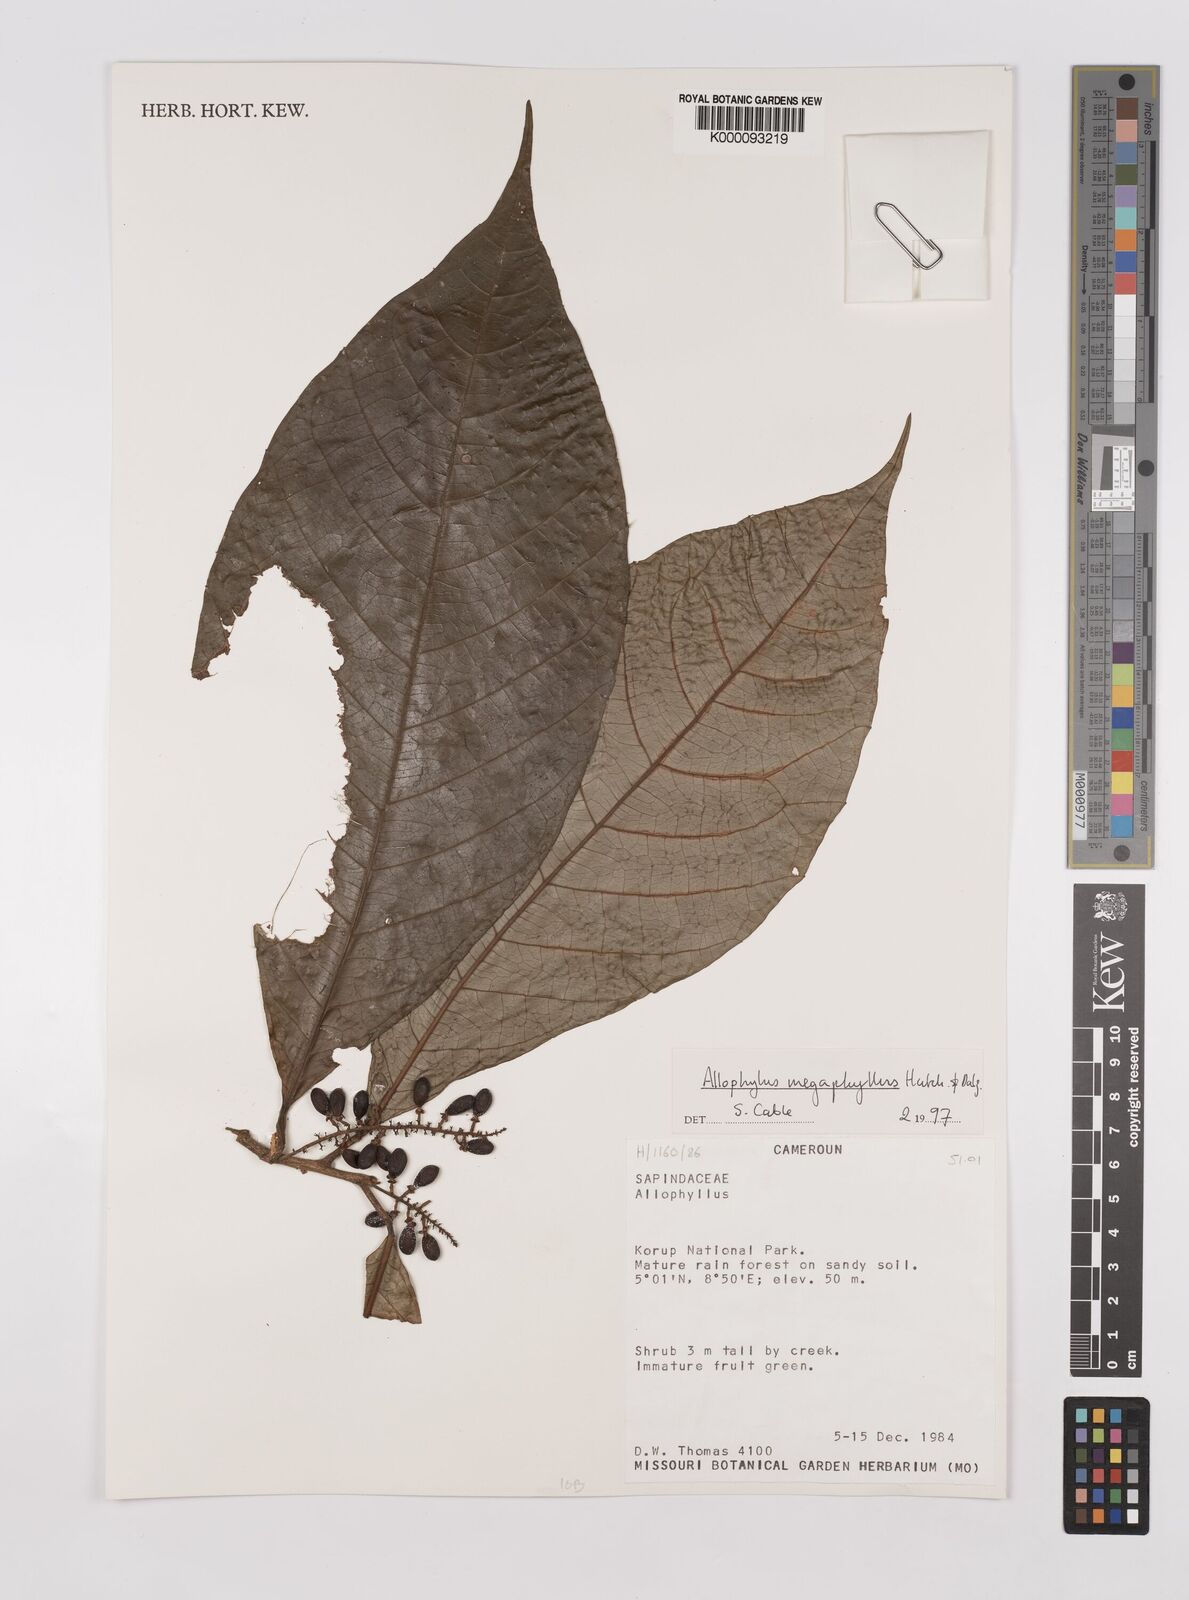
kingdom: Plantae
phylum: Tracheophyta
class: Magnoliopsida
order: Sapindales
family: Sapindaceae
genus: Allophylus
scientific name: Allophylus megaphyllus
